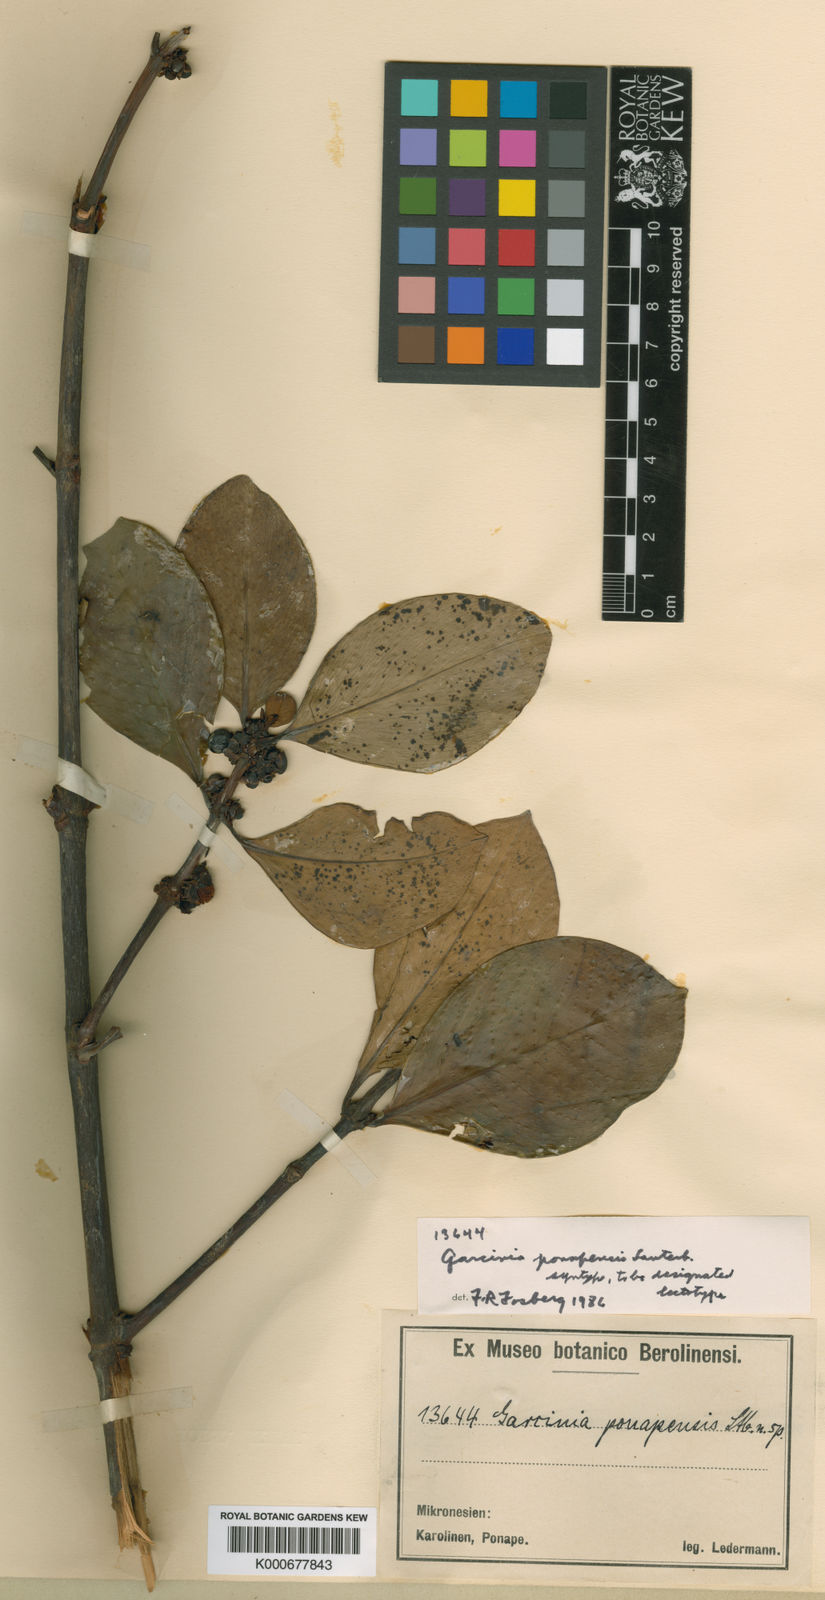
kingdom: Plantae
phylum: Tracheophyta
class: Magnoliopsida
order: Malpighiales
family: Clusiaceae
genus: Garcinia
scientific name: Garcinia ponapensis
